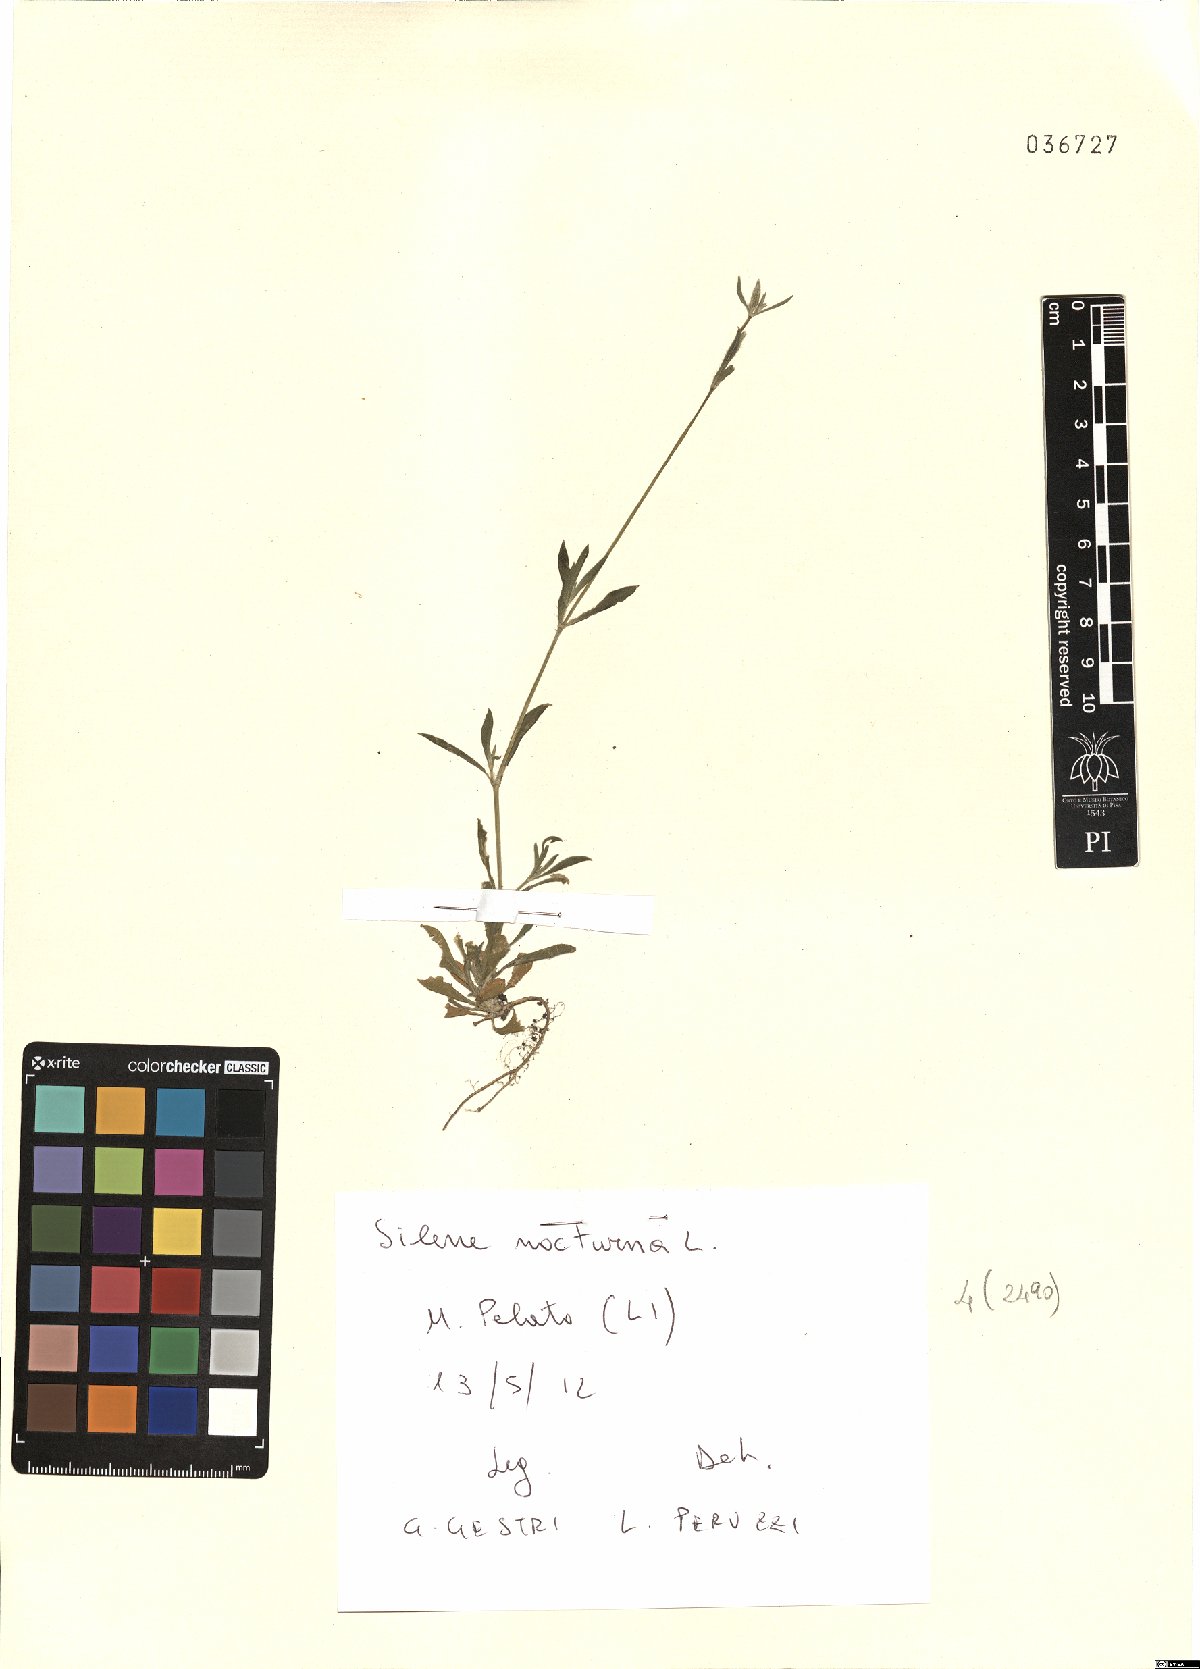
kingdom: Plantae
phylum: Tracheophyta
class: Magnoliopsida
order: Caryophyllales
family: Caryophyllaceae
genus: Silene
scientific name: Silene nocturna
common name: Mediterranean catchfly
